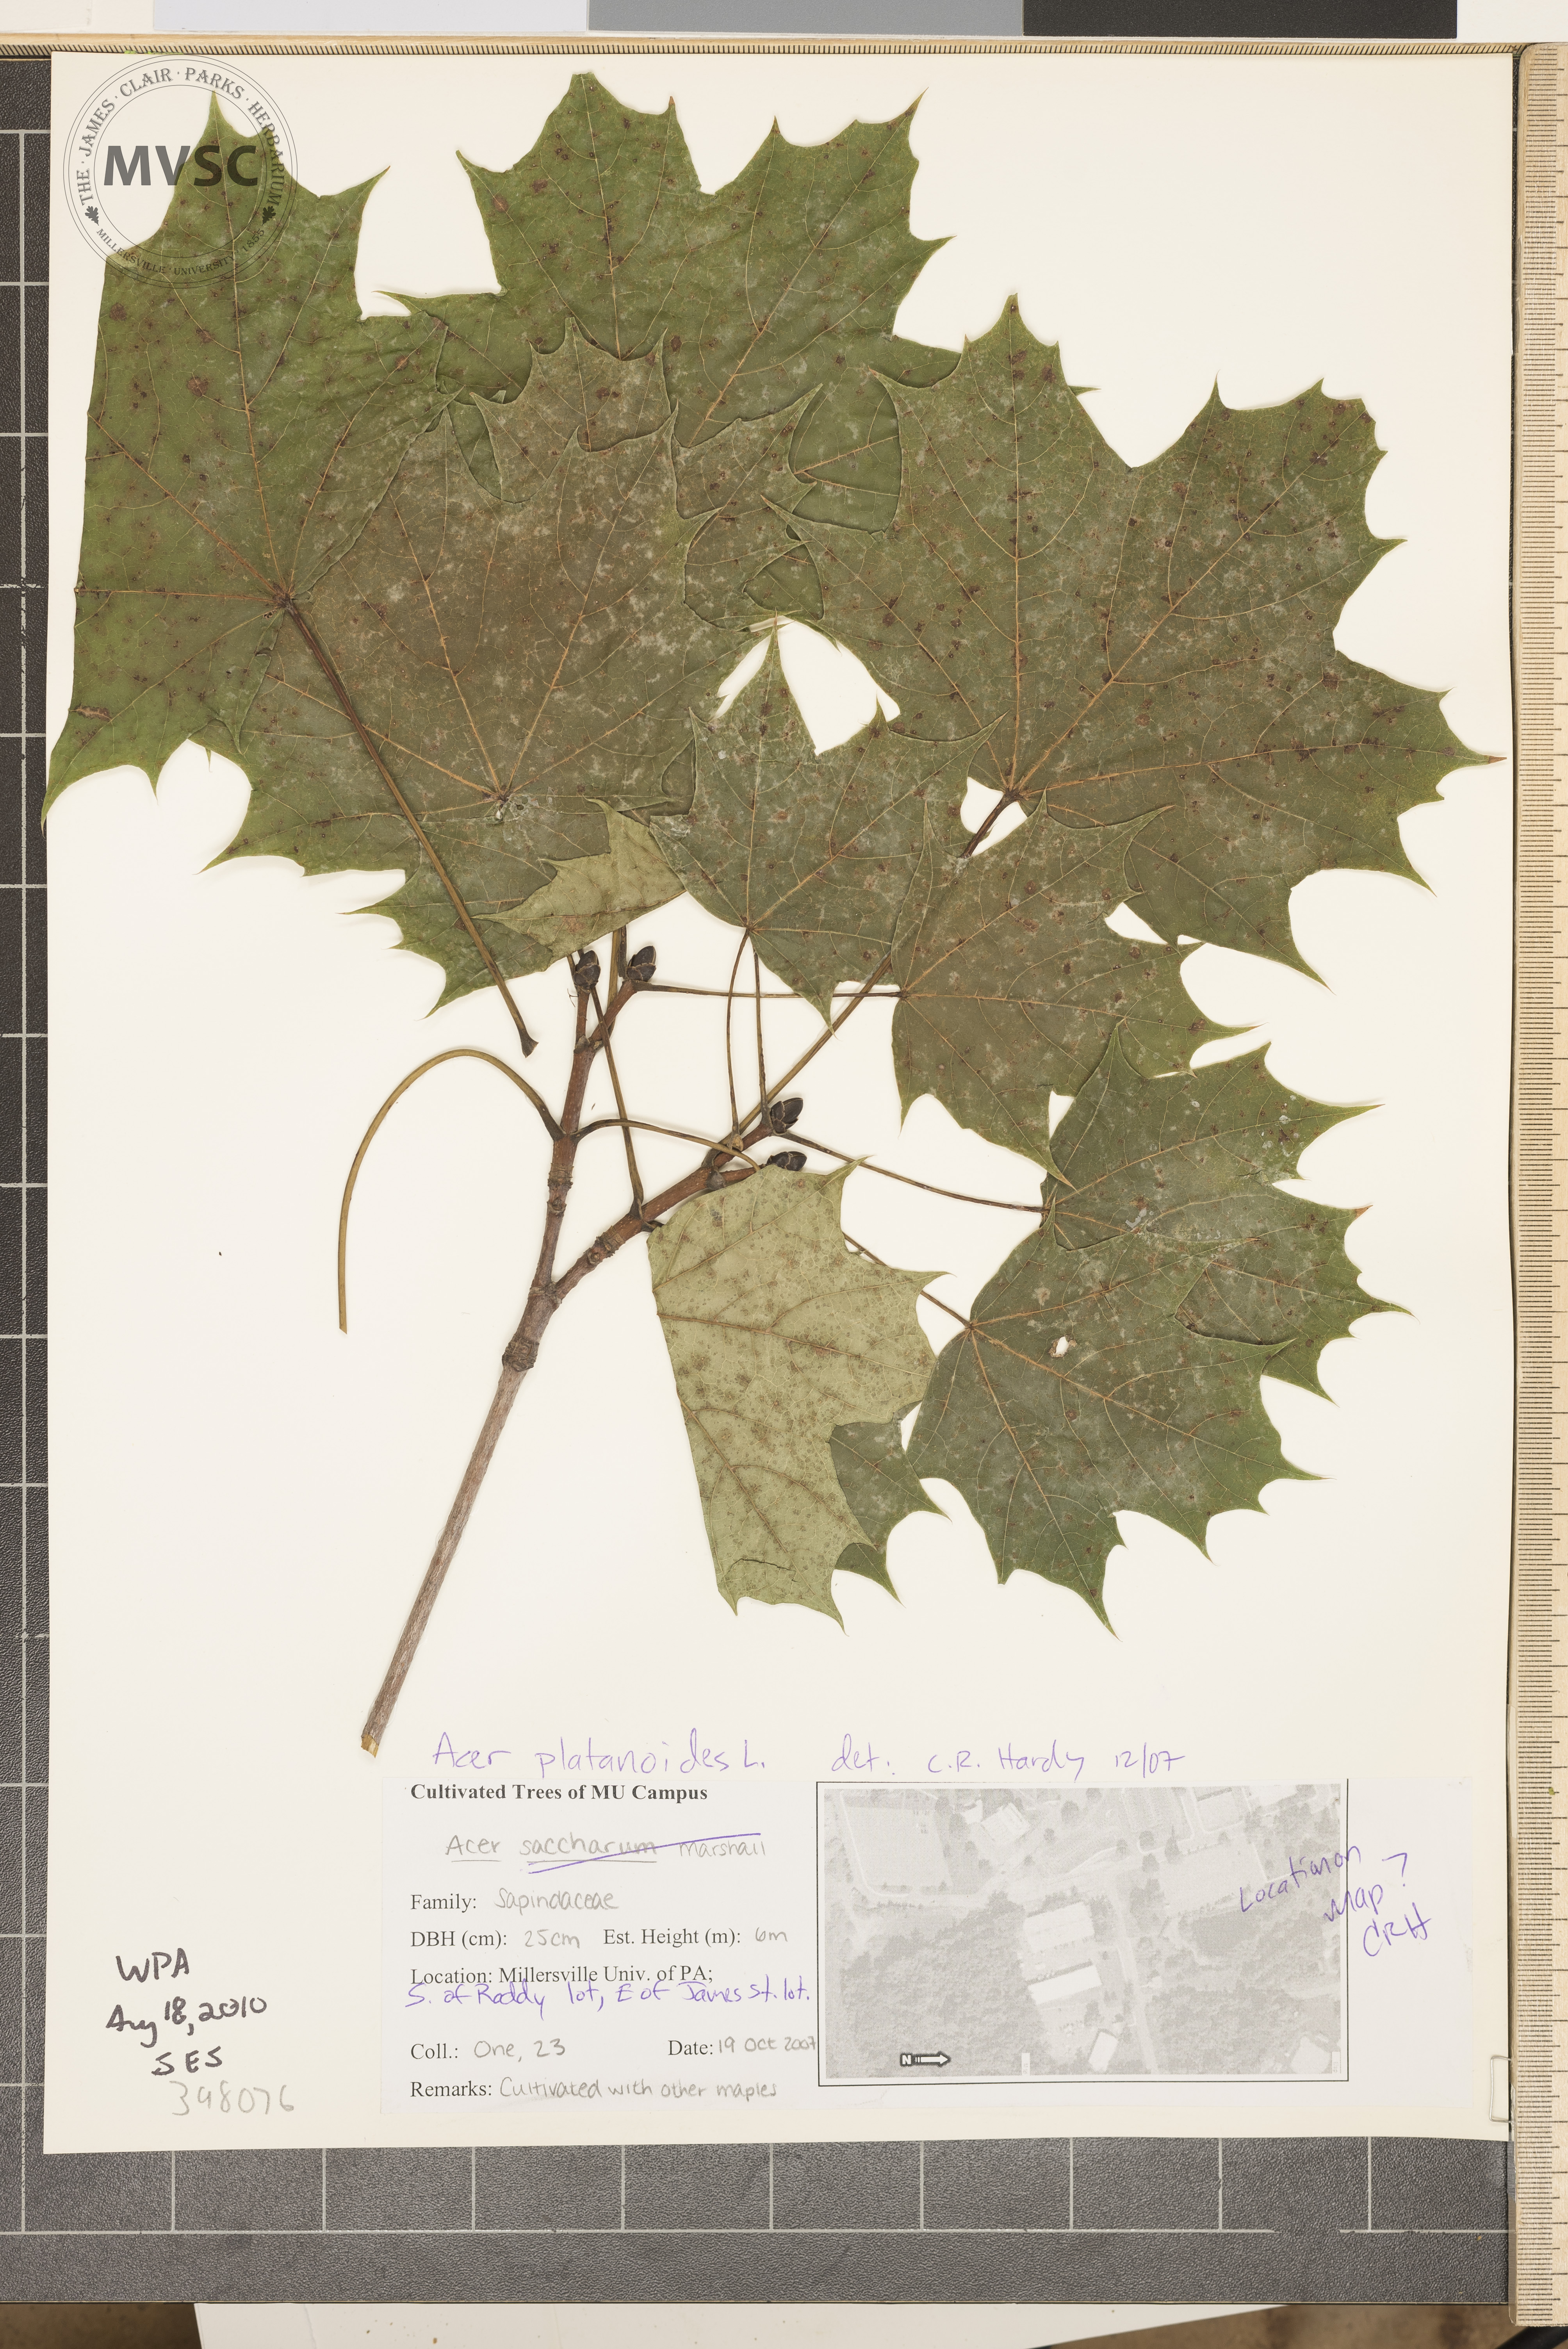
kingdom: Plantae
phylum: Tracheophyta
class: Magnoliopsida
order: Sapindales
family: Sapindaceae
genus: Acer
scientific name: Acer platanoides
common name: Norway maple
